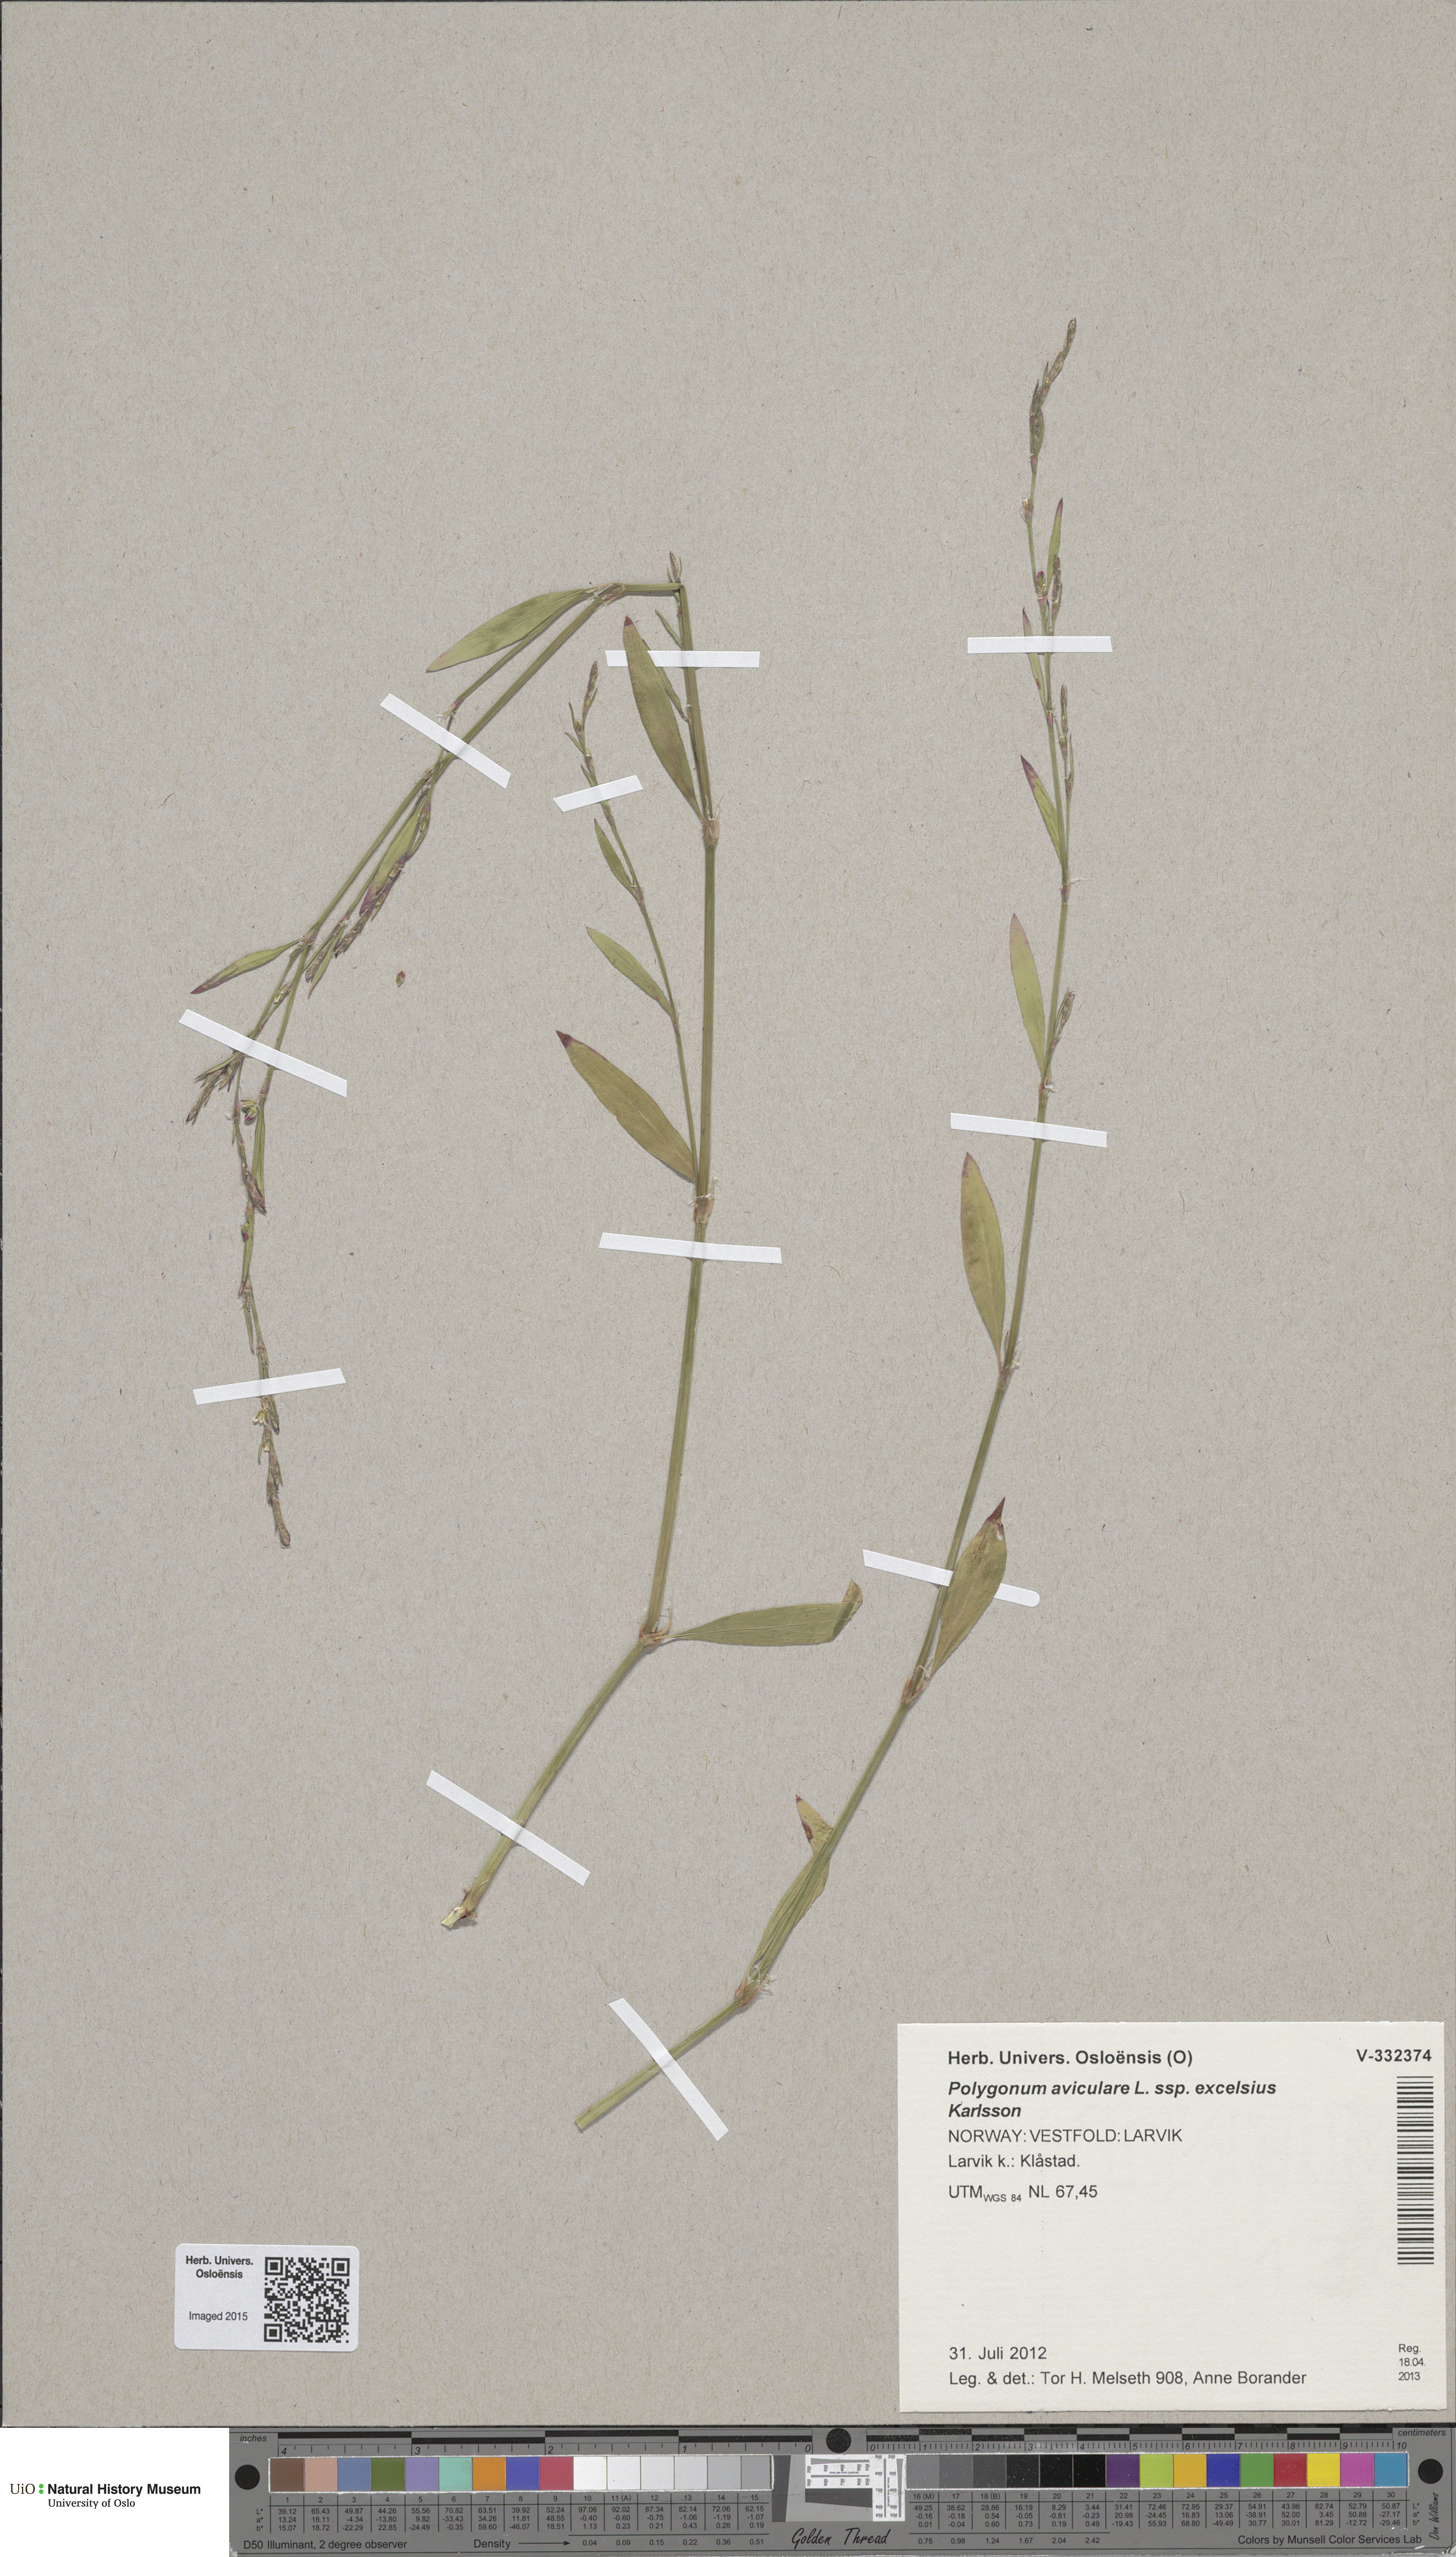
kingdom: Plantae
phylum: Tracheophyta
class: Magnoliopsida
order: Caryophyllales
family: Polygonaceae
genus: Polygonum
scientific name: Polygonum excelsius
